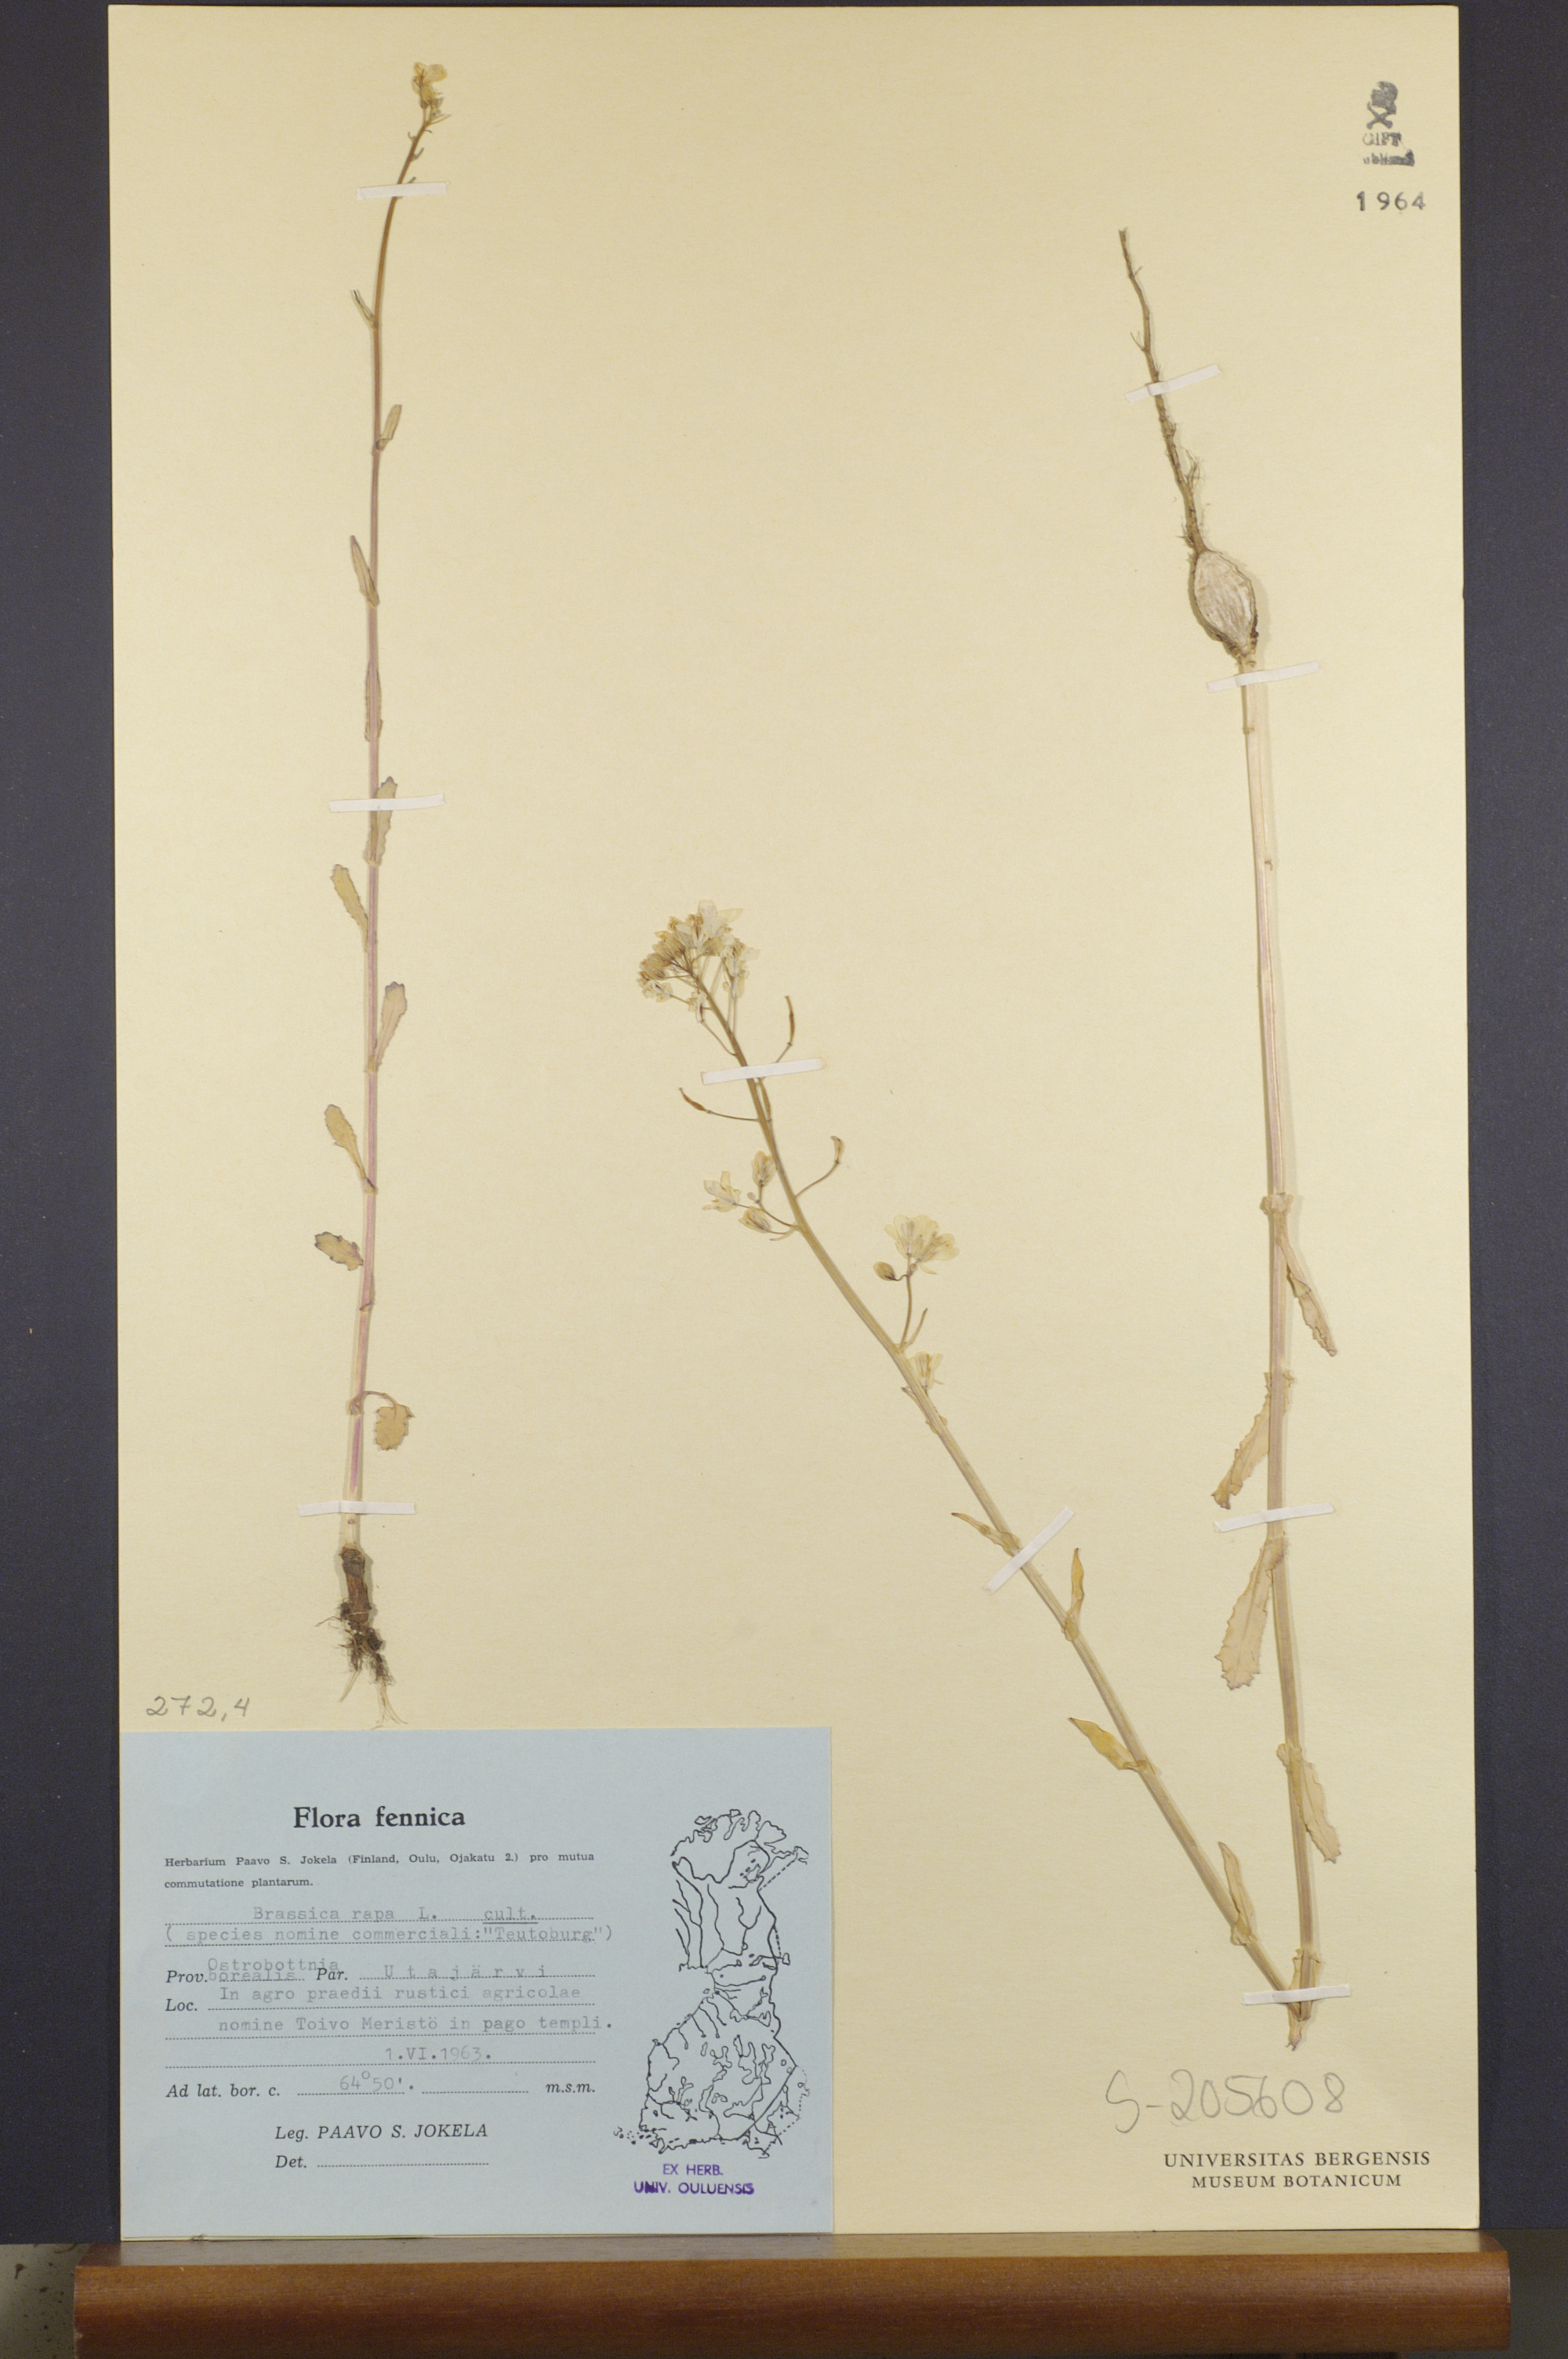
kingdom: Plantae
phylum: Tracheophyta
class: Magnoliopsida
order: Brassicales
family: Brassicaceae
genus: Brassica
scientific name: Brassica rapa
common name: Field mustard
